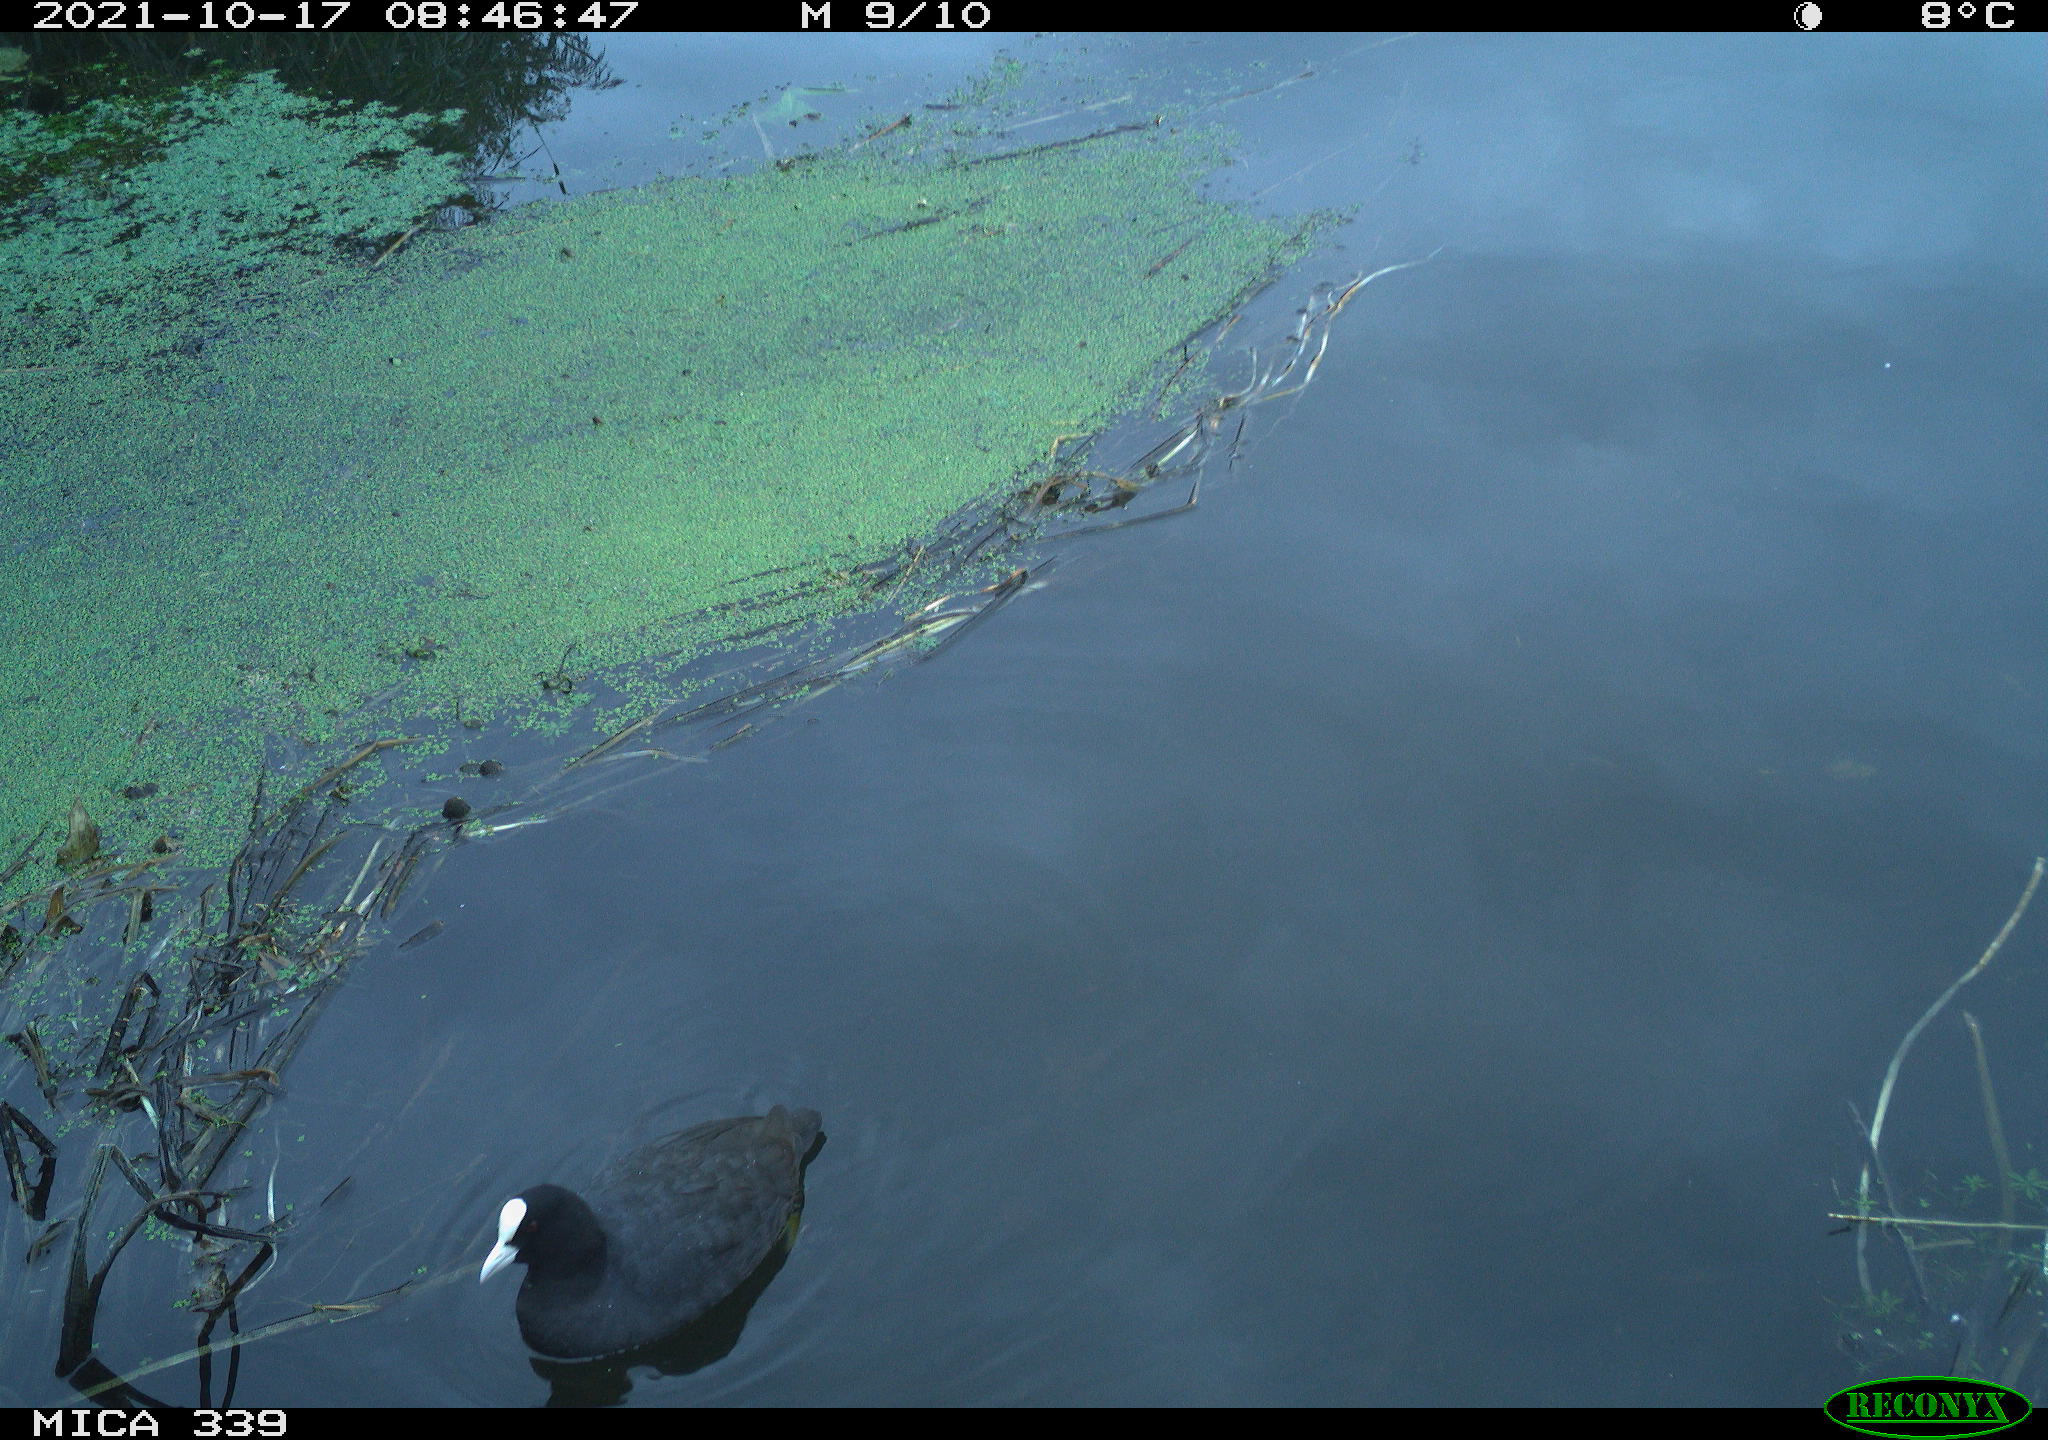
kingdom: Animalia
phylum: Chordata
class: Aves
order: Gruiformes
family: Rallidae
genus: Fulica
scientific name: Fulica atra
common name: Eurasian coot
